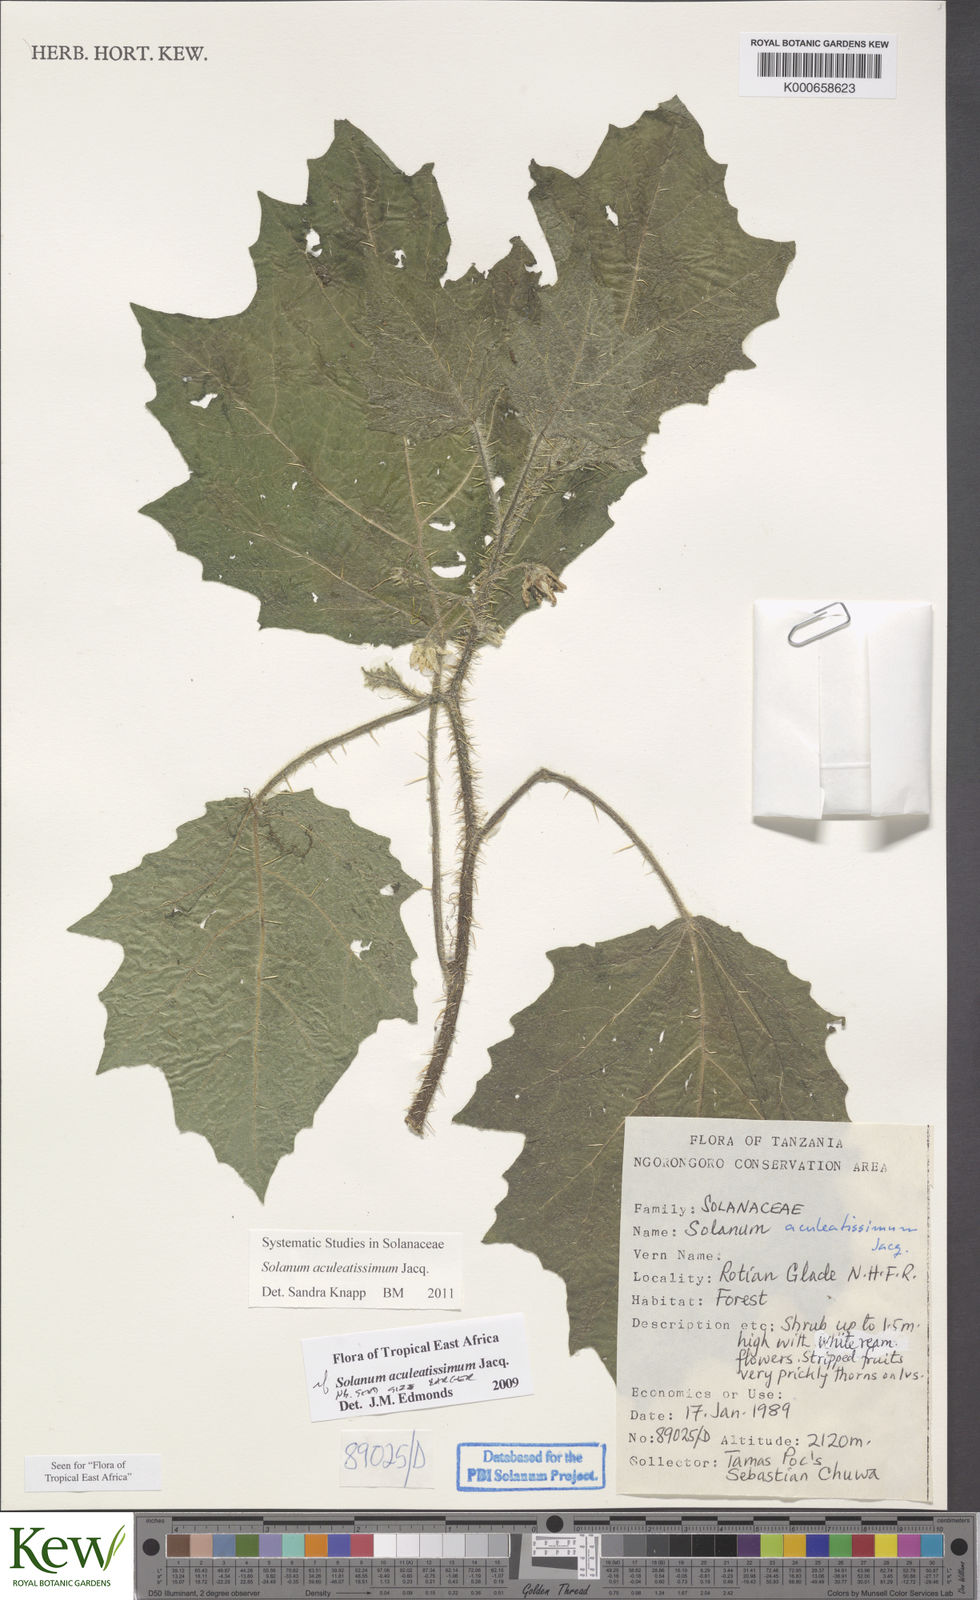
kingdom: Plantae
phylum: Tracheophyta
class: Magnoliopsida
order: Solanales
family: Solanaceae
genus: Solanum
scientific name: Solanum aculeatissimum
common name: Dutch eggplant
